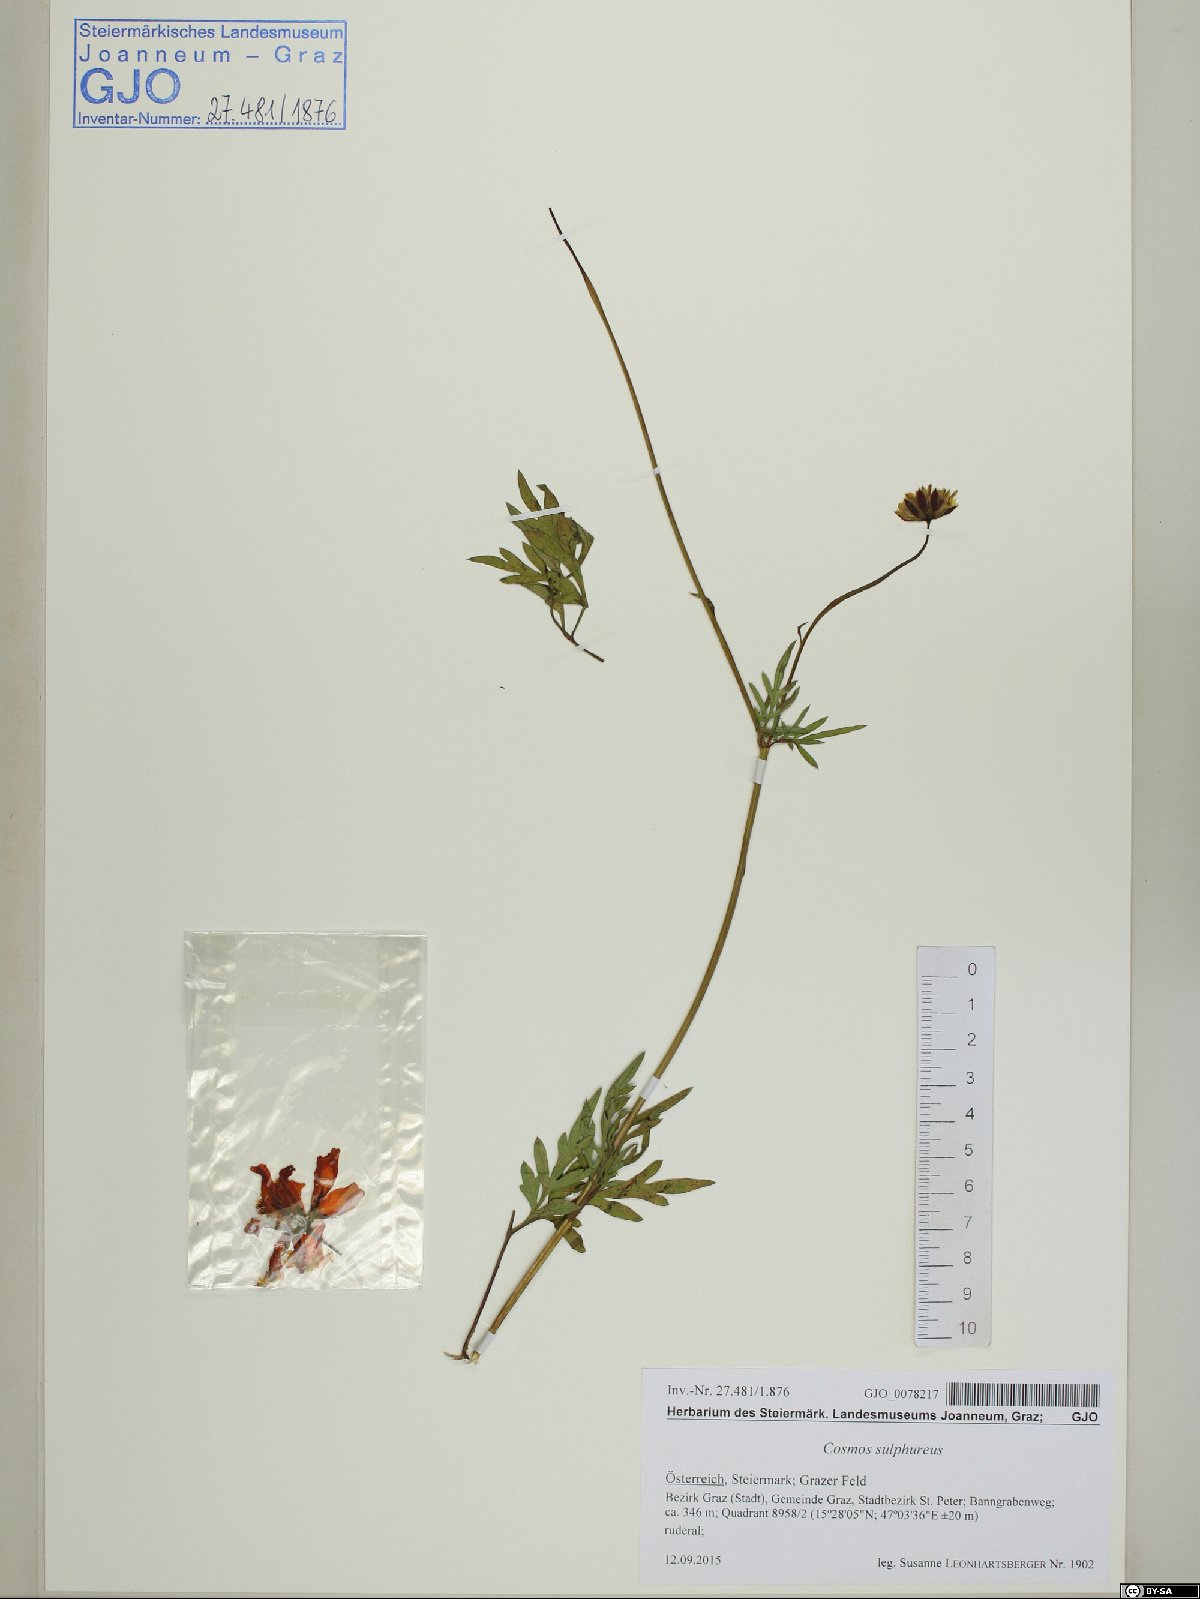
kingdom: Plantae
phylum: Tracheophyta
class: Magnoliopsida
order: Asterales
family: Asteraceae
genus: Cosmos
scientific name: Cosmos sulphureus
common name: Sulphur cosmos
